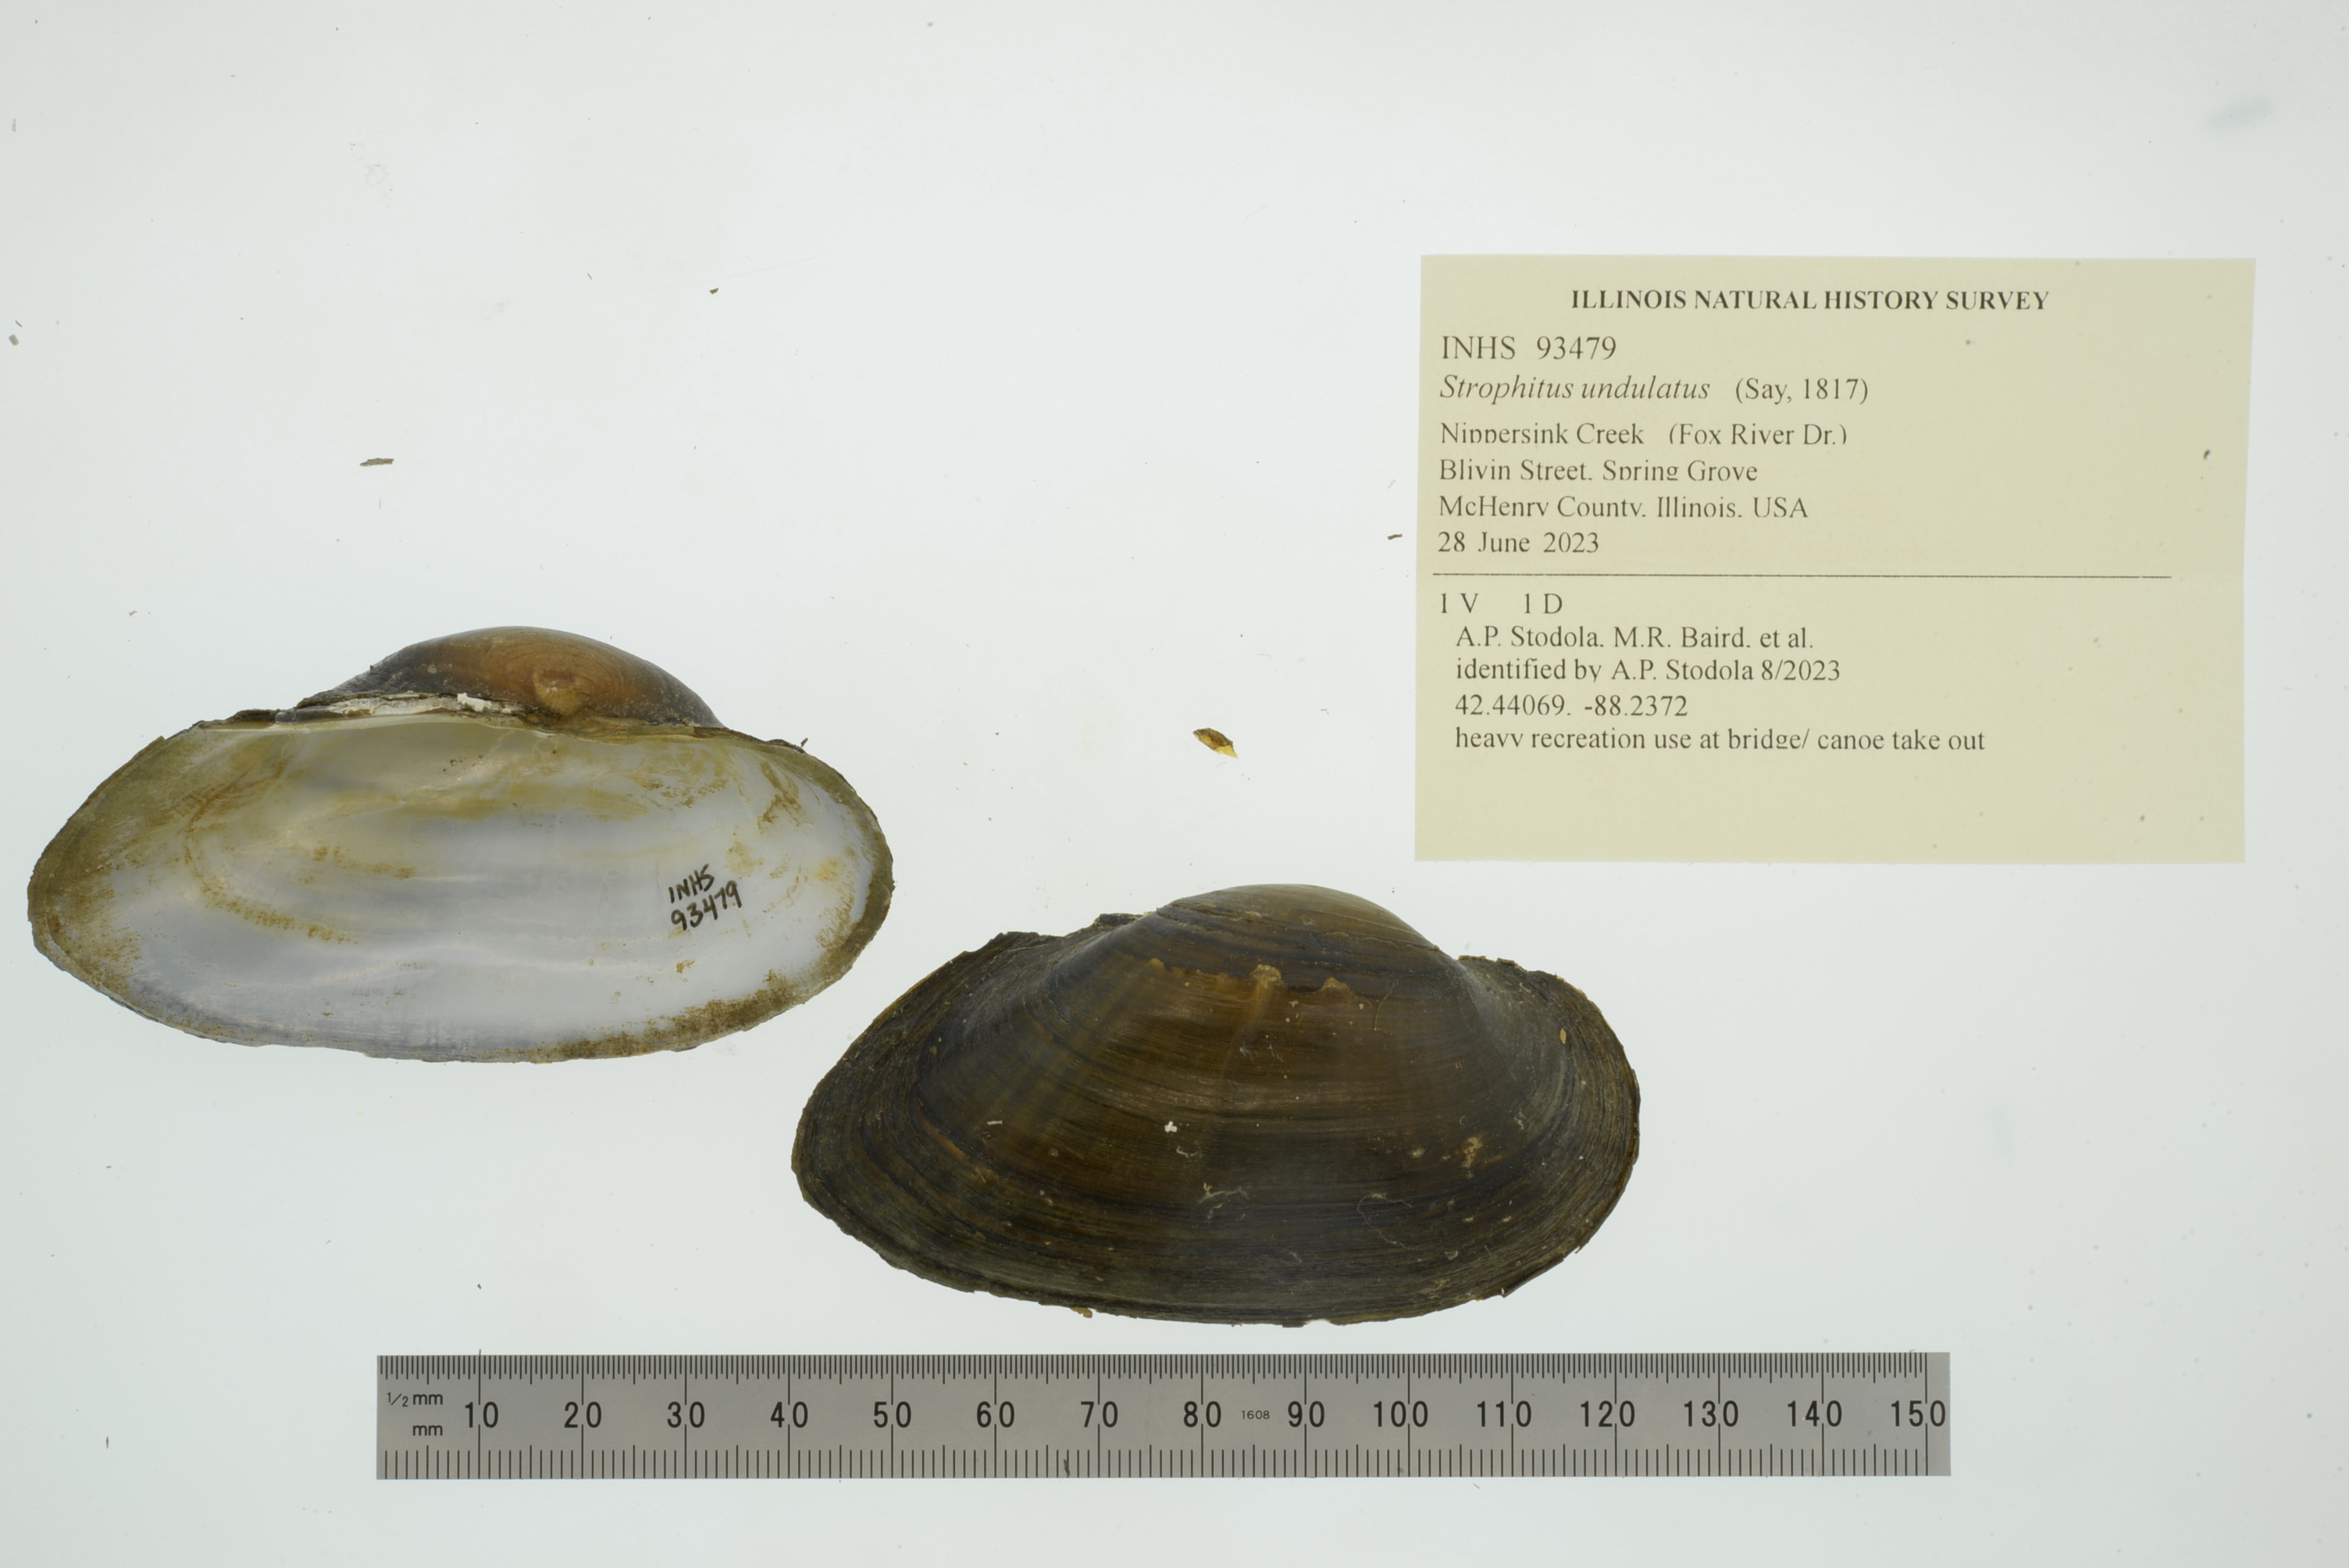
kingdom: Animalia
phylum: Mollusca
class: Bivalvia
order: Unionida
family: Unionidae
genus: Strophitus
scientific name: Strophitus undulatus
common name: Creeper
